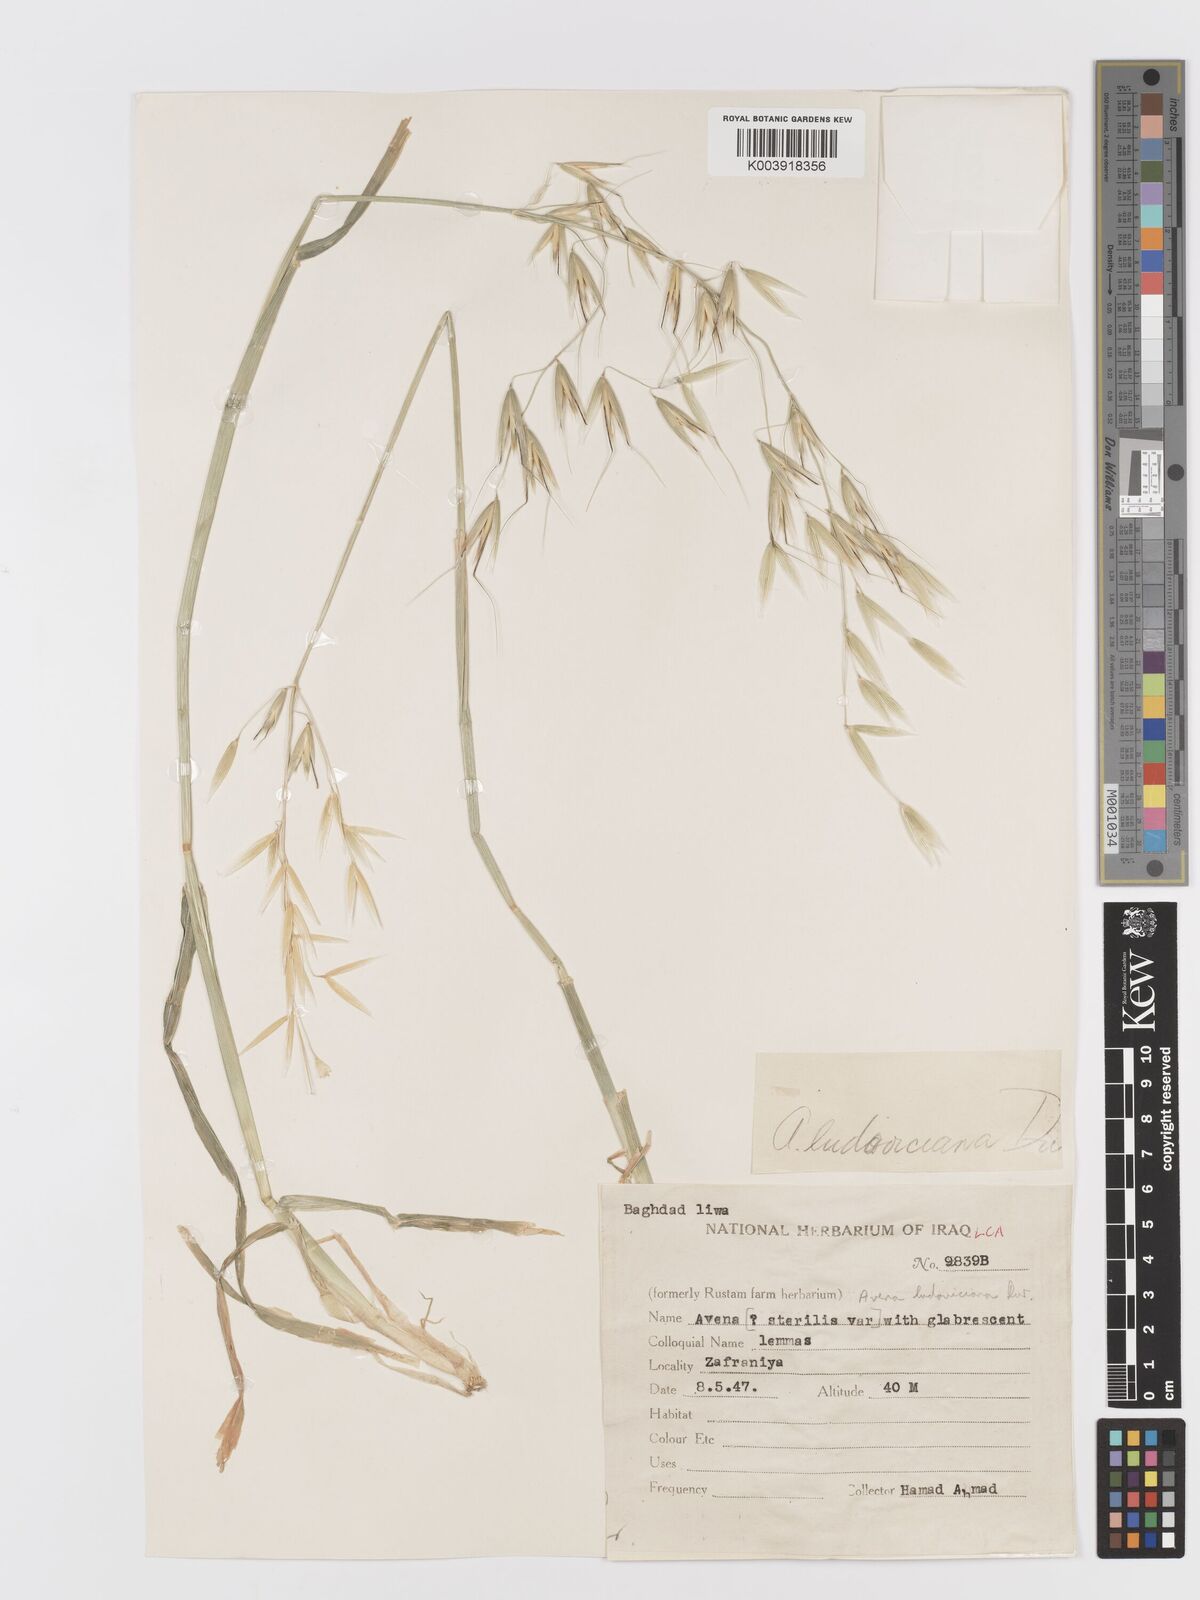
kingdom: Plantae
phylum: Tracheophyta
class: Liliopsida
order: Poales
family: Poaceae
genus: Avena
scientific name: Avena sterilis
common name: Animated oat
